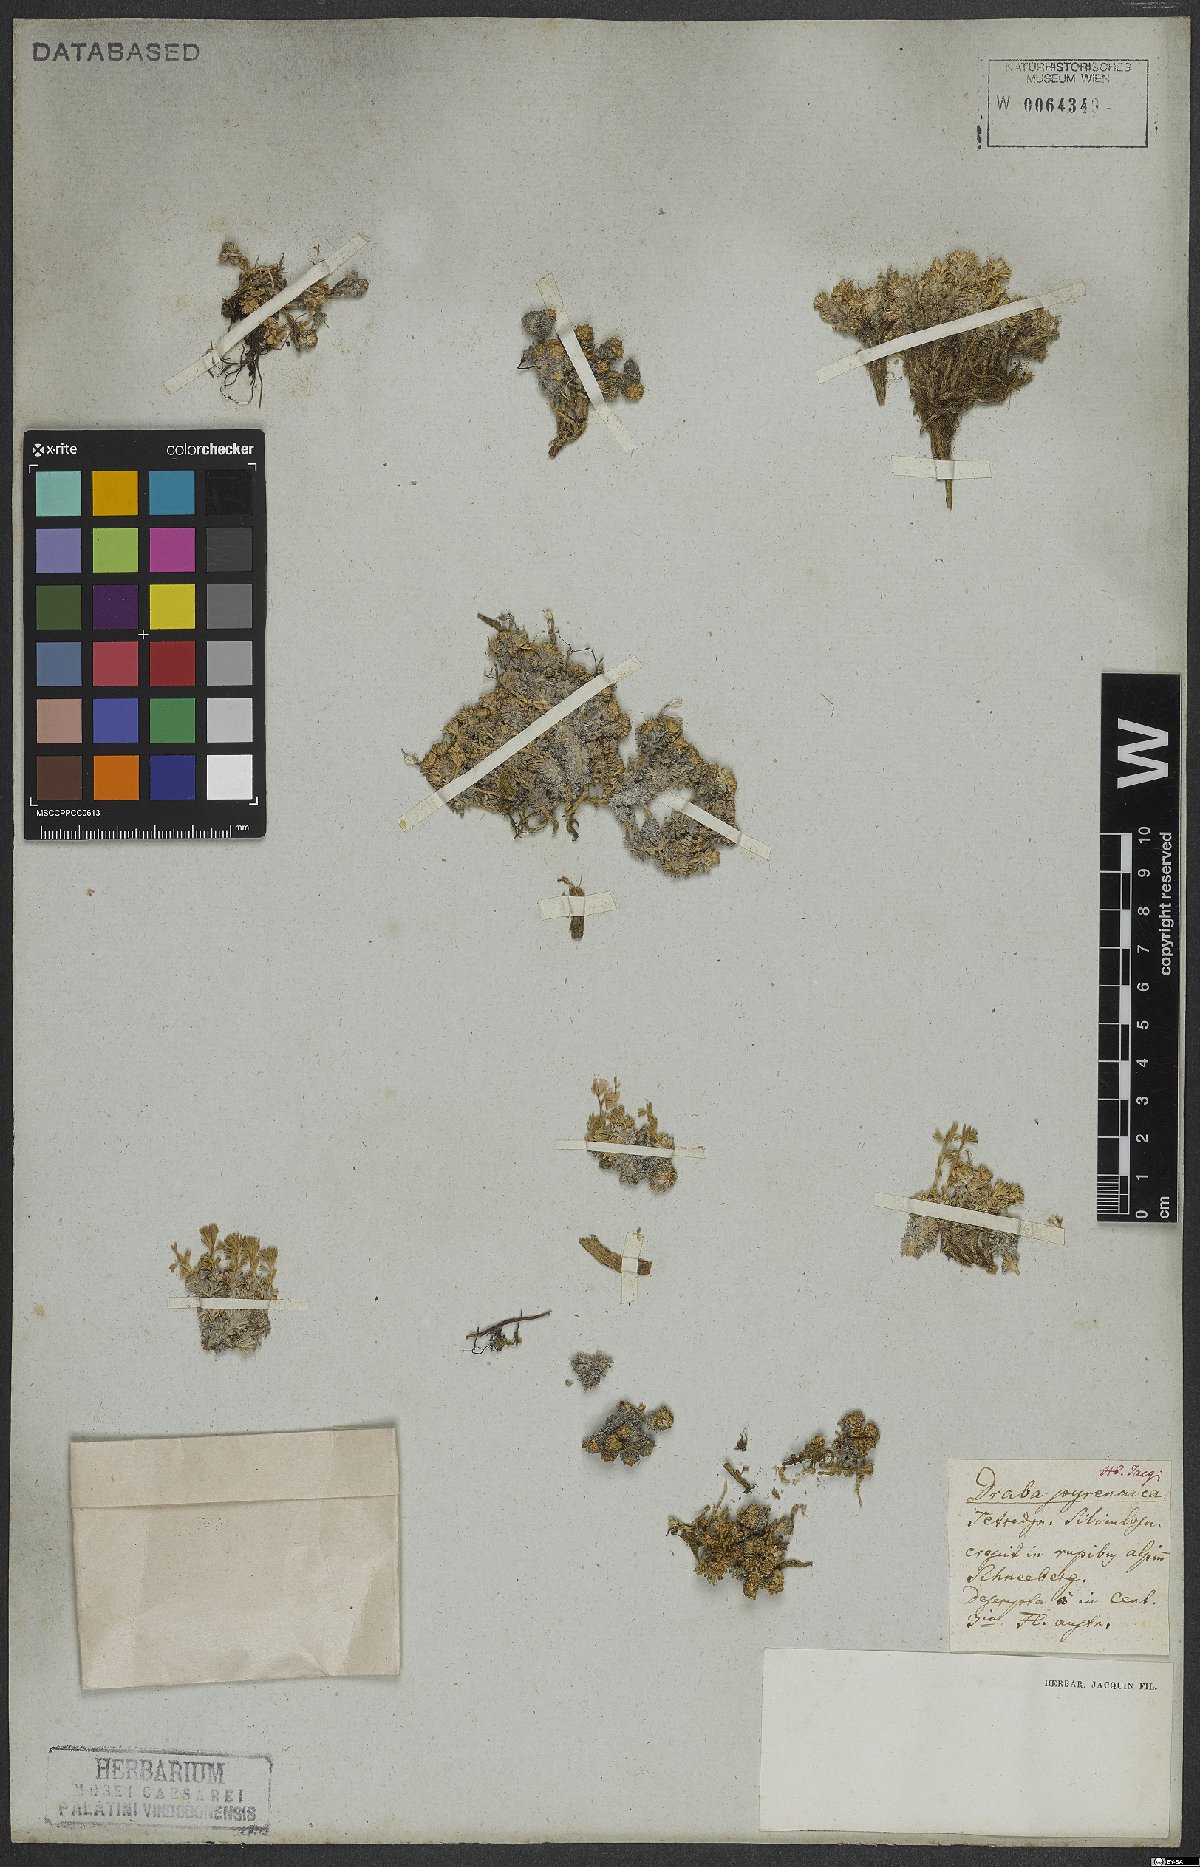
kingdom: Plantae
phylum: Tracheophyta
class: Magnoliopsida
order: Brassicales
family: Brassicaceae
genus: Petrocallis
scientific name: Petrocallis pyrenaica
